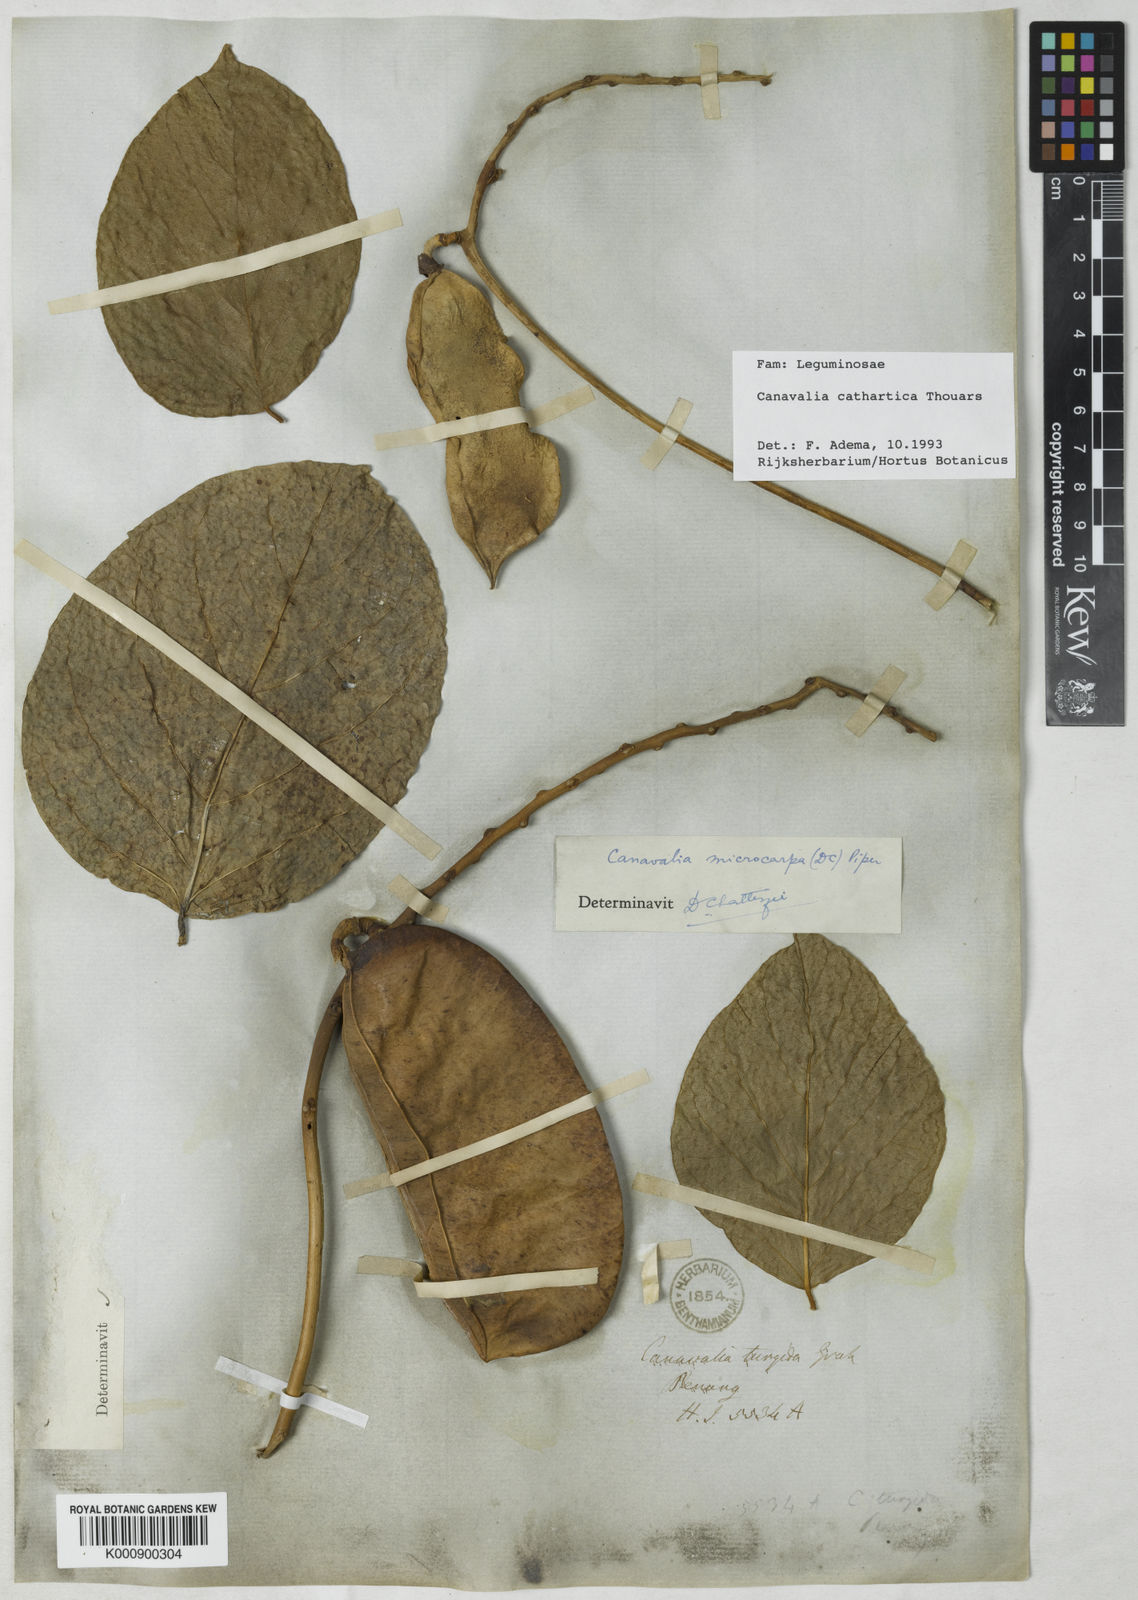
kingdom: Plantae
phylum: Tracheophyta
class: Magnoliopsida
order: Fabales
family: Fabaceae
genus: Canavalia
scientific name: Canavalia cathartica
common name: Maunaloa
